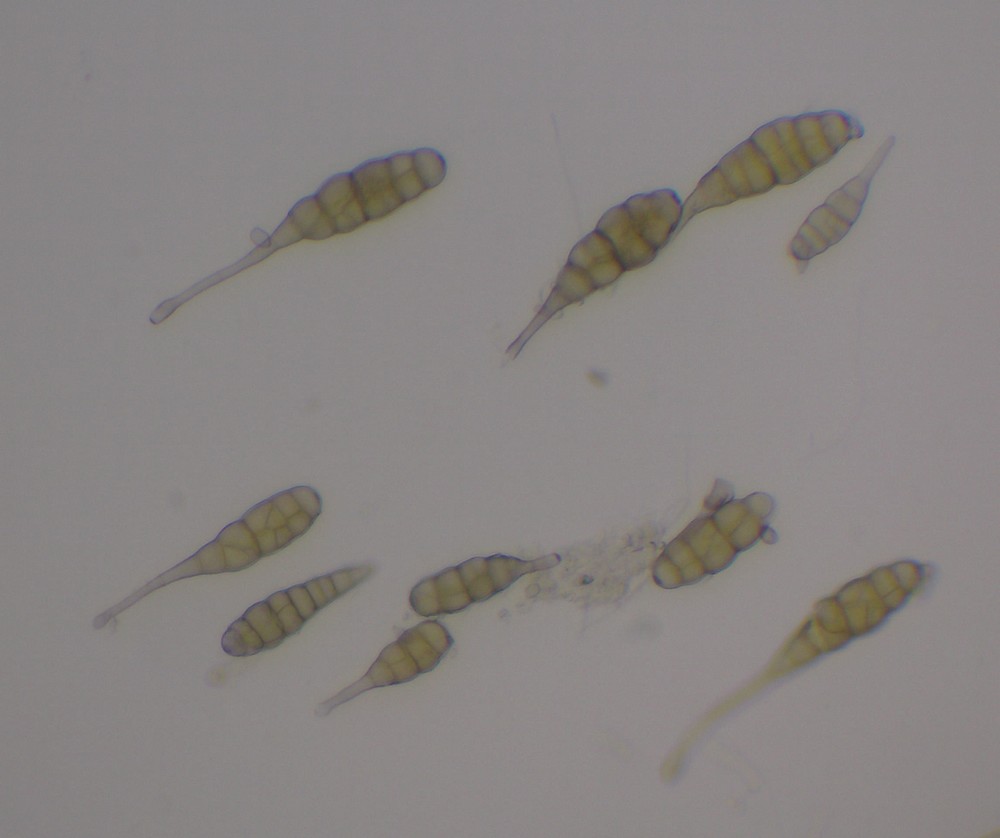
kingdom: Fungi
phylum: Ascomycota
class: Dothideomycetes
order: Pleosporales
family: Pleosporaceae
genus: Alternaria
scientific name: Alternaria tenuissima
